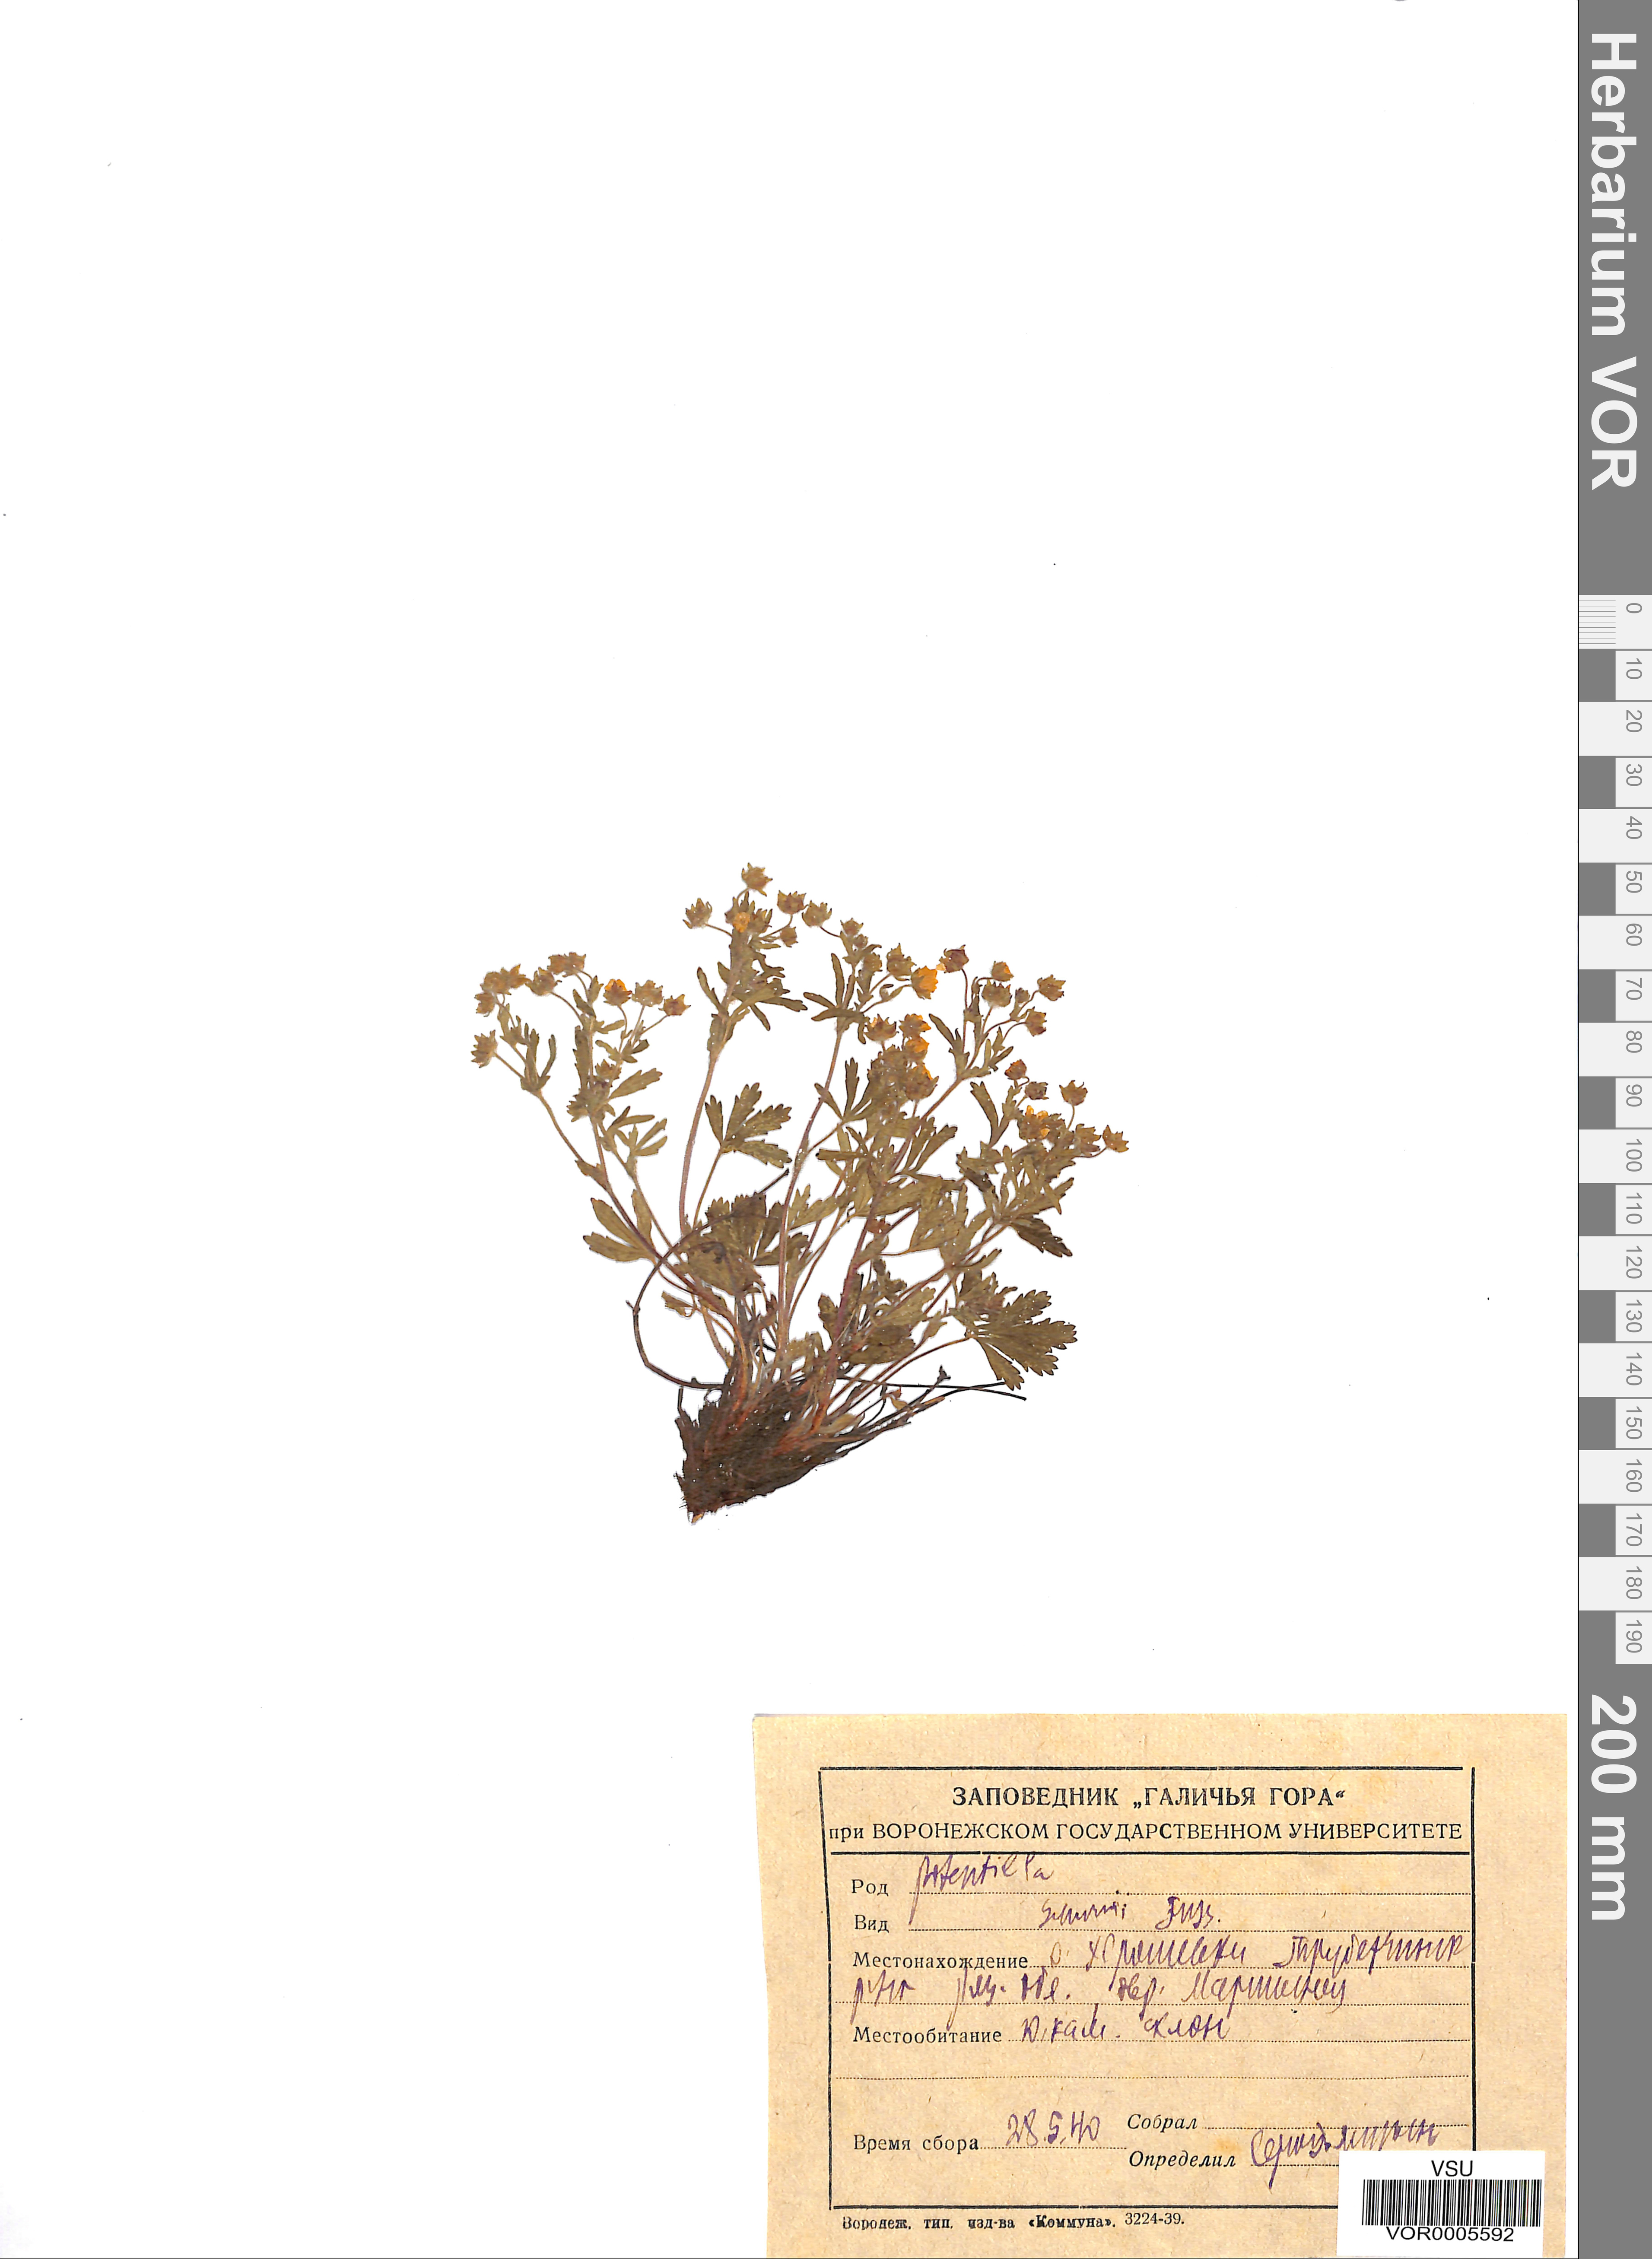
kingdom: Plantae
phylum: Tracheophyta
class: Magnoliopsida
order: Rosales
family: Rosaceae
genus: Potentilla
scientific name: Potentilla patula
